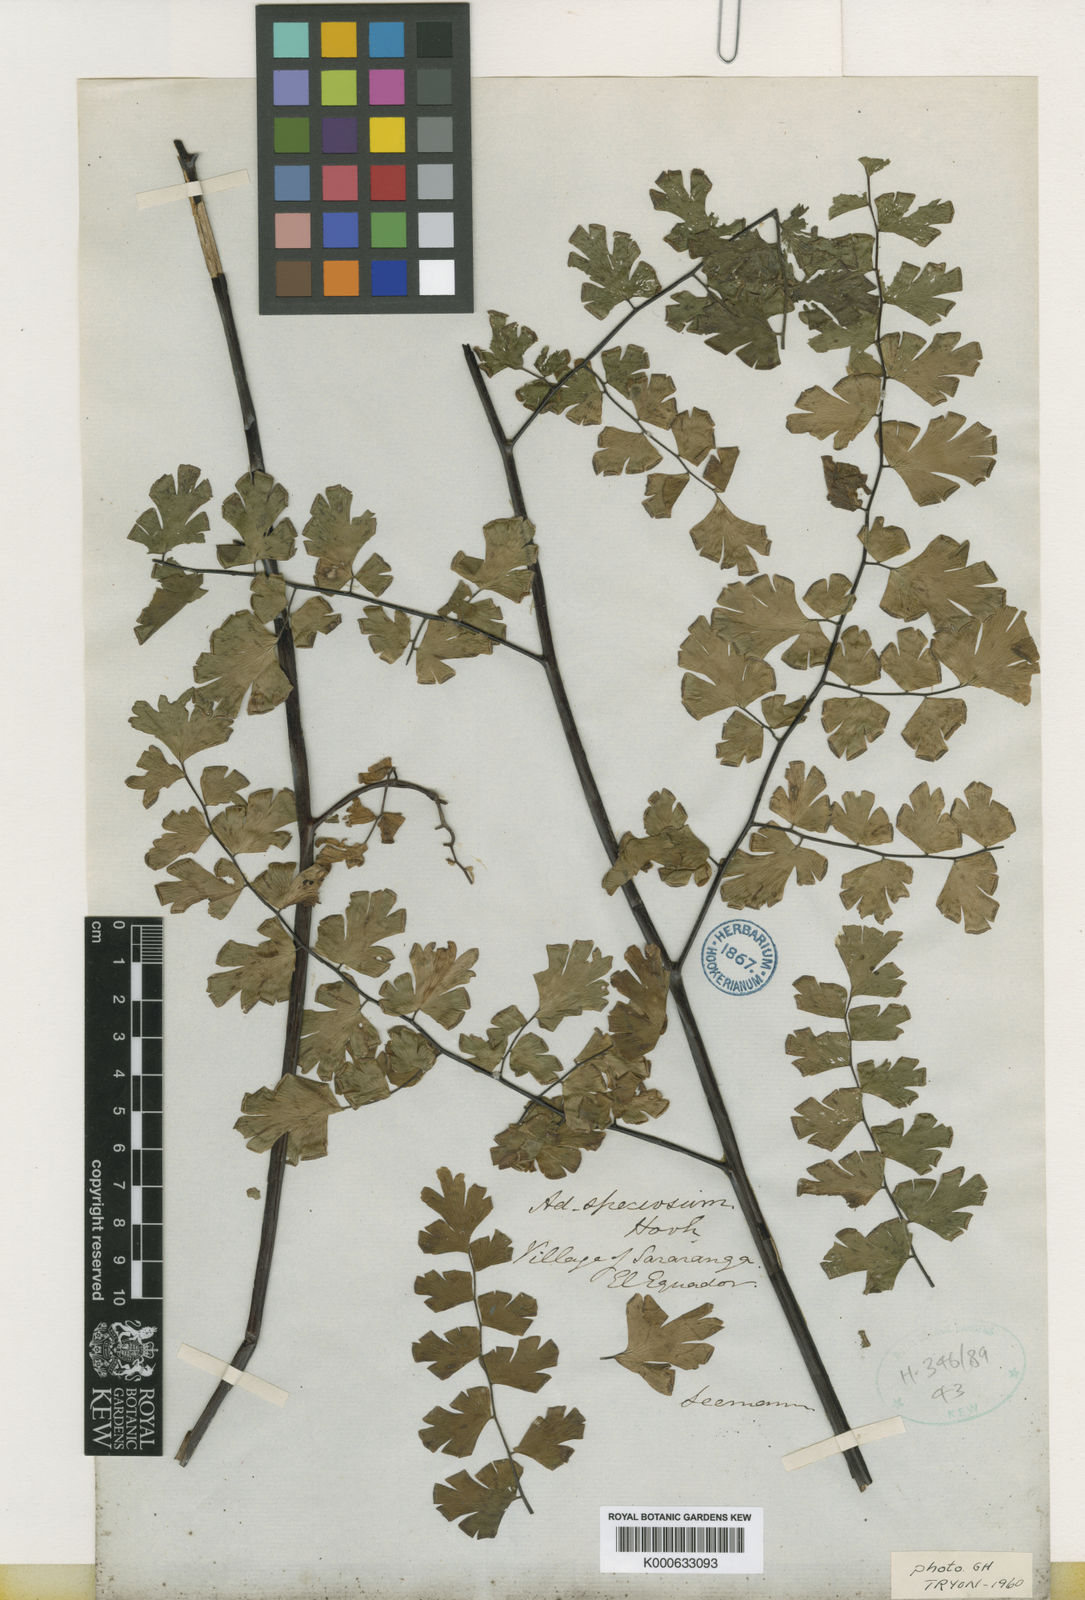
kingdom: Plantae
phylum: Tracheophyta
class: Polypodiopsida
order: Polypodiales
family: Pteridaceae
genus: Adiantum
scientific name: Adiantum
